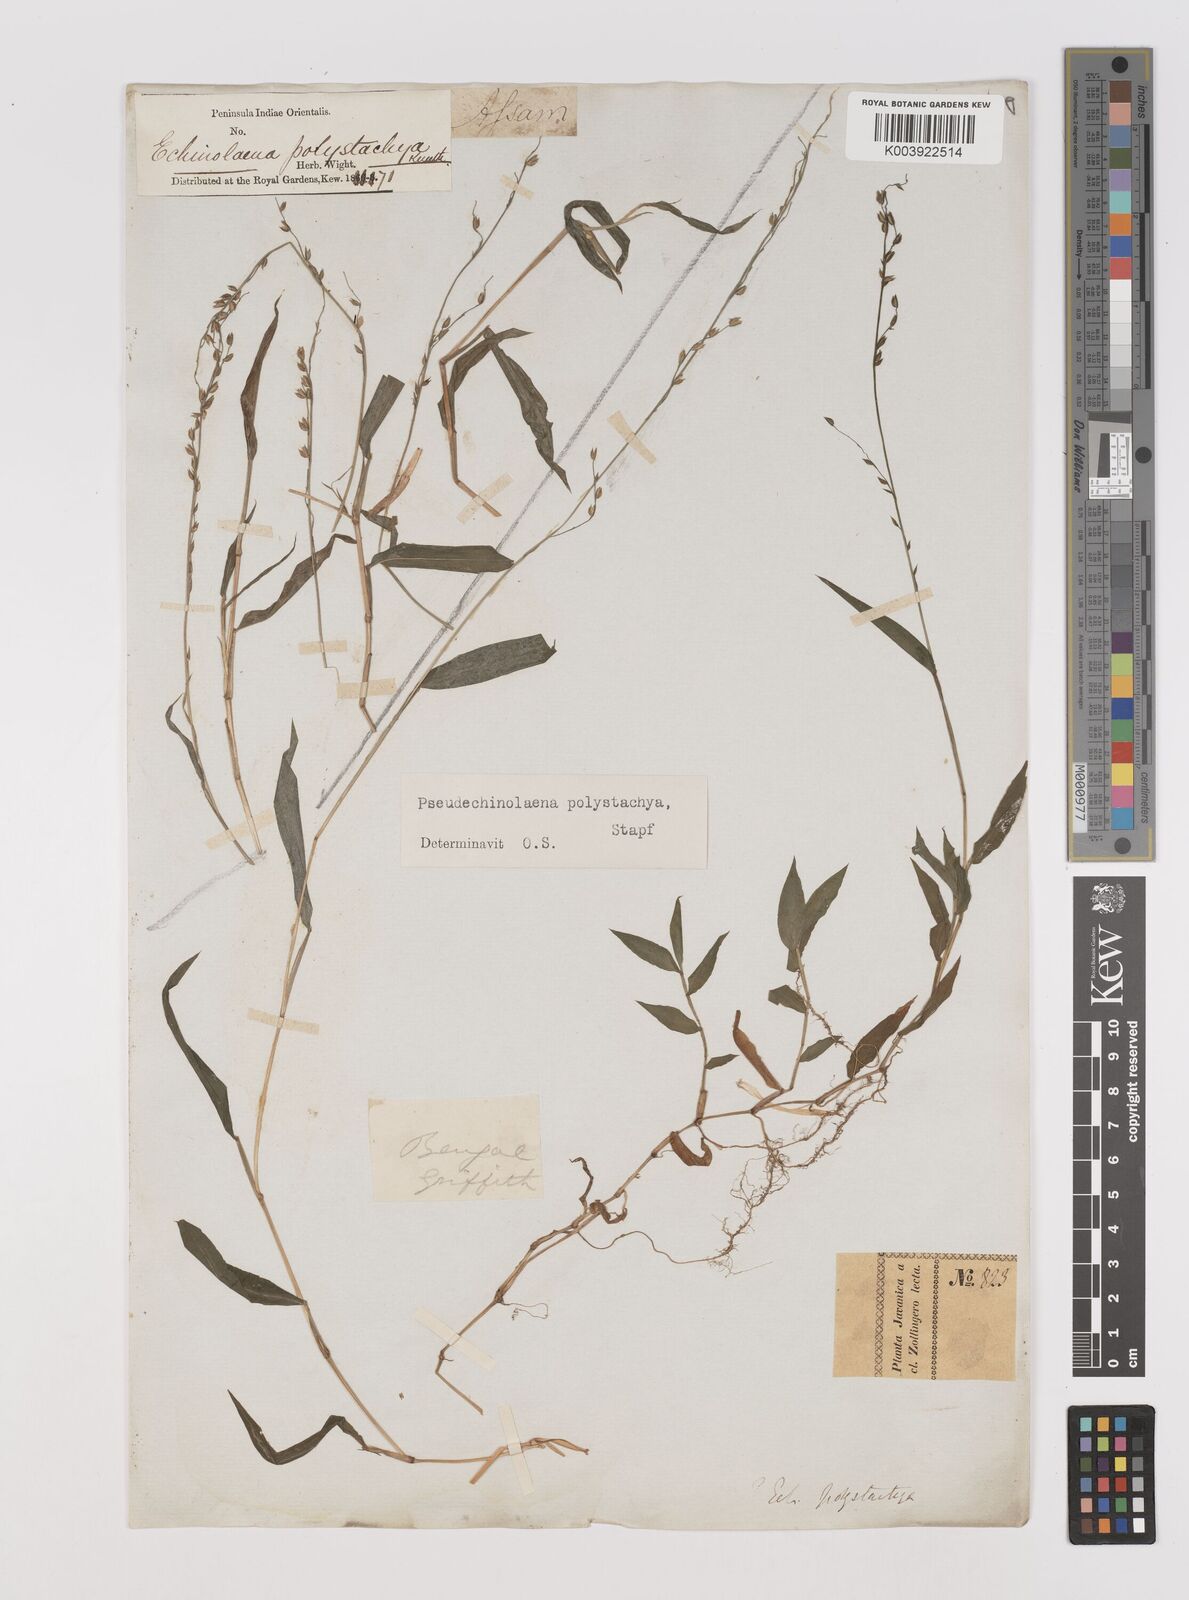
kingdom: Plantae
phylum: Tracheophyta
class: Liliopsida
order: Poales
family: Poaceae
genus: Pseudechinolaena
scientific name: Pseudechinolaena polystachya
